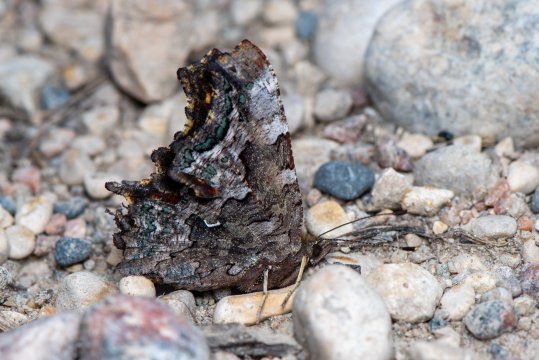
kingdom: Animalia
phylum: Arthropoda
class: Insecta
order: Lepidoptera
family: Nymphalidae
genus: Polygonia
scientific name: Polygonia faunus
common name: Green Comma
